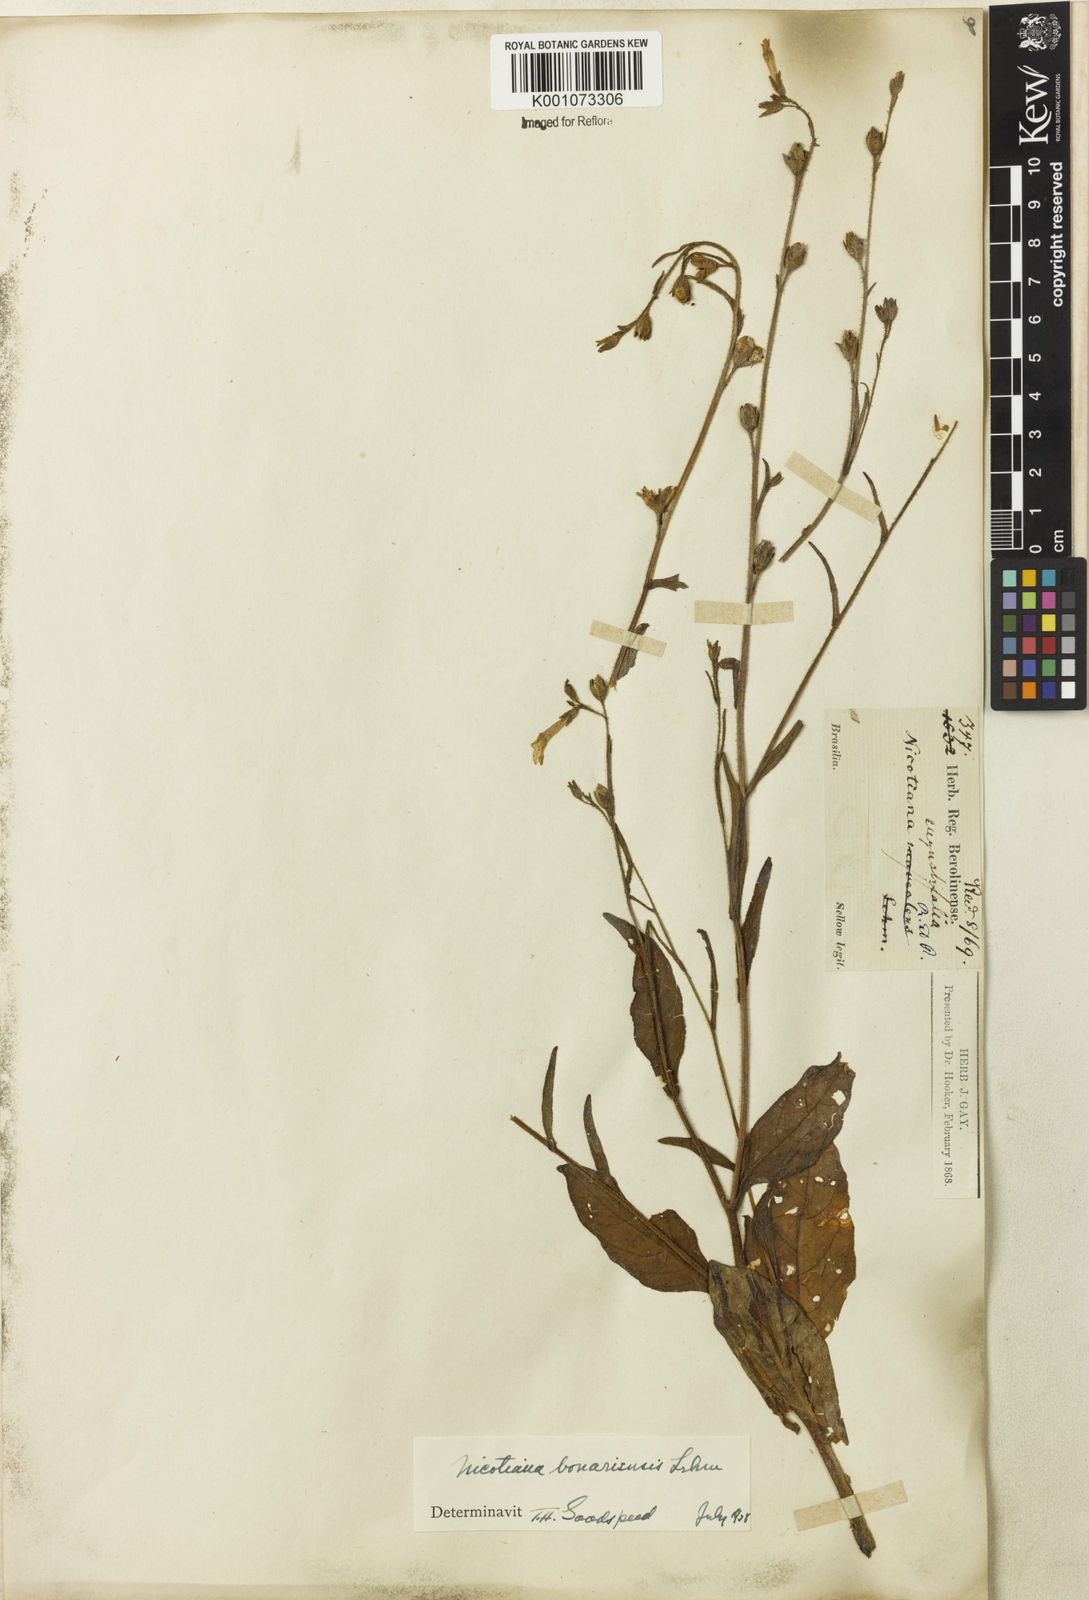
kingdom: Plantae
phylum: Tracheophyta
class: Magnoliopsida
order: Solanales
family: Solanaceae
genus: Nicotiana
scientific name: Nicotiana acuminata
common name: Manyflower tobacco
